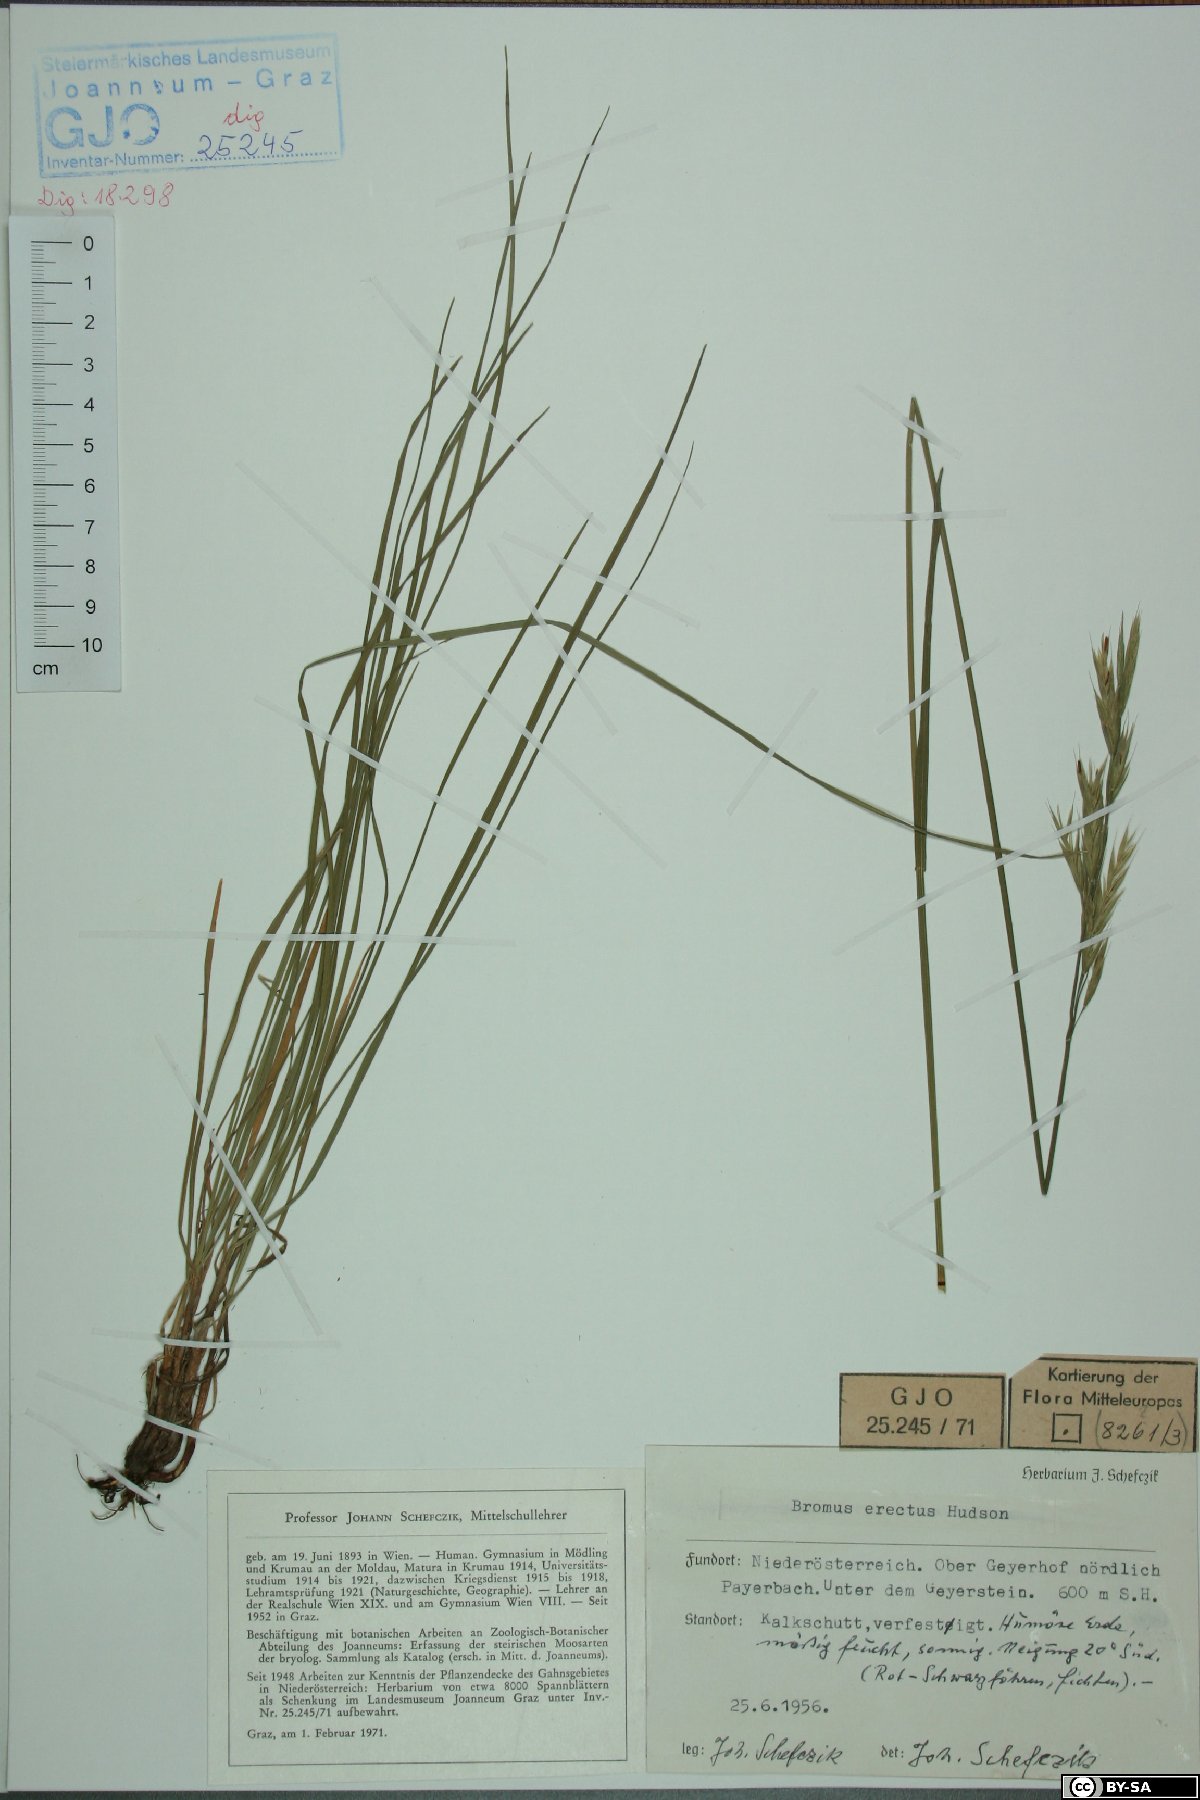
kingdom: Plantae
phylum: Tracheophyta
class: Liliopsida
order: Poales
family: Poaceae
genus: Bromus
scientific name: Bromus erectus
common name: Erect brome
